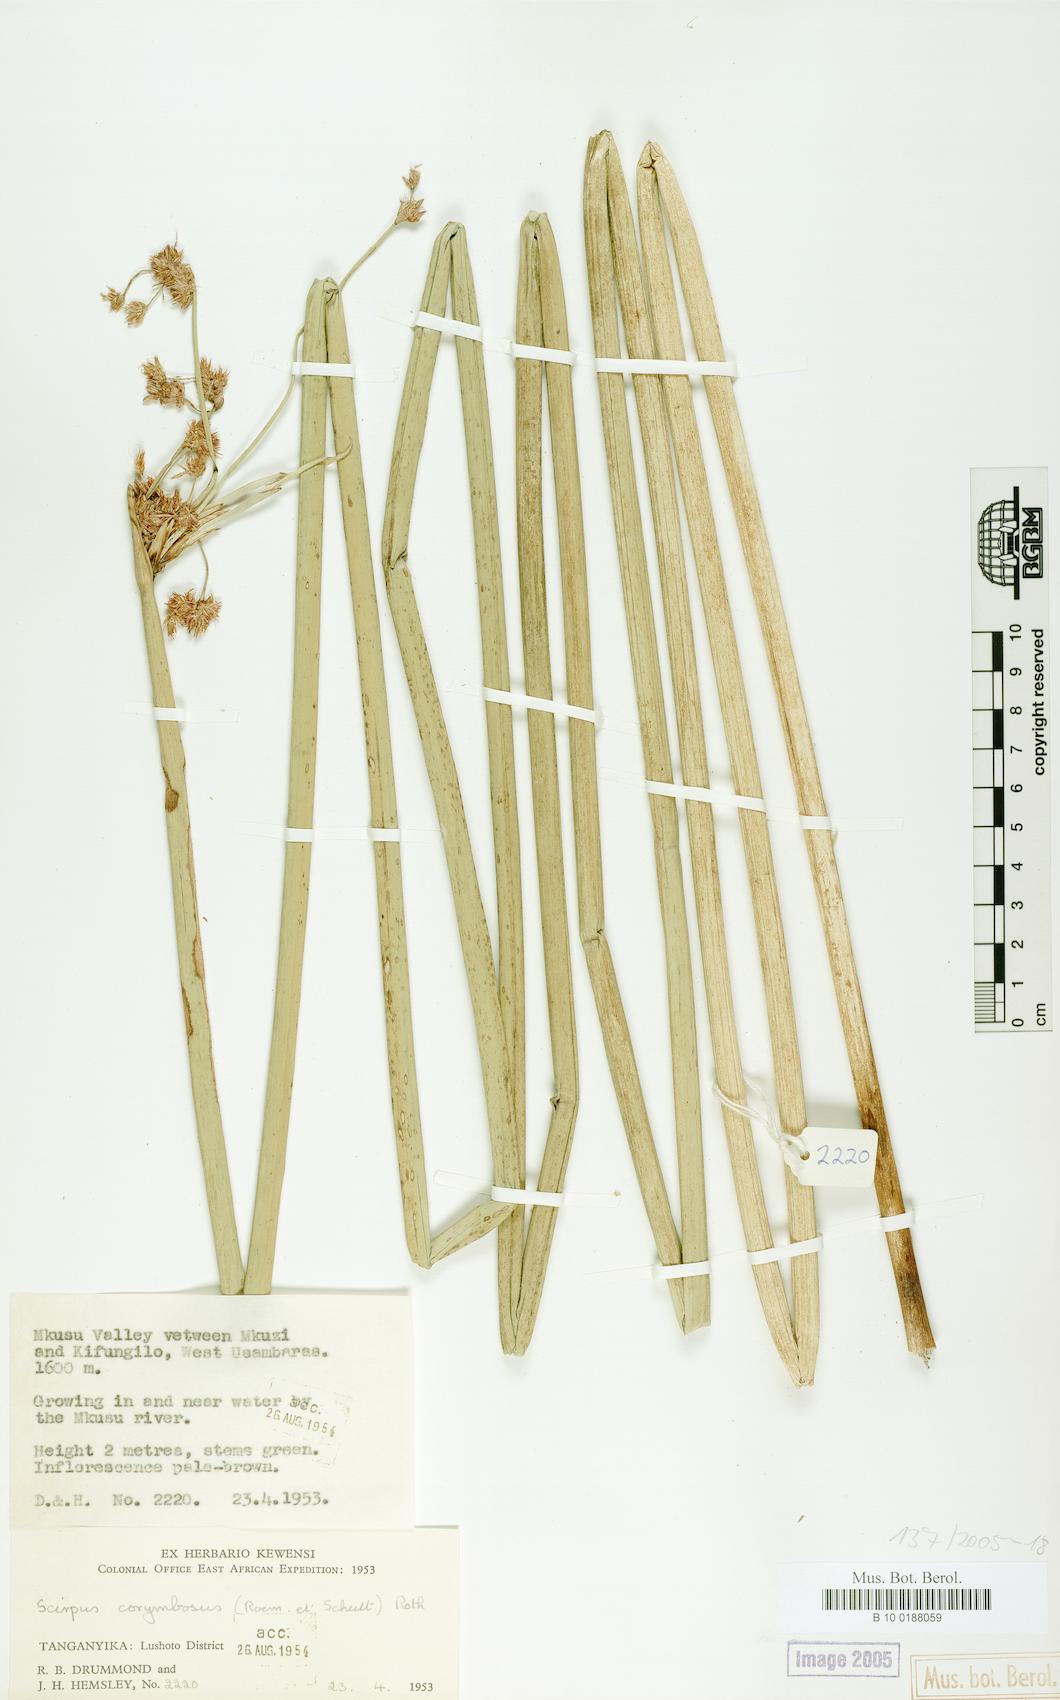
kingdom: Plantae
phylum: Tracheophyta
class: Liliopsida
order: Poales
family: Cyperaceae
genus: Scirpus
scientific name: Scirpus corymbosus
